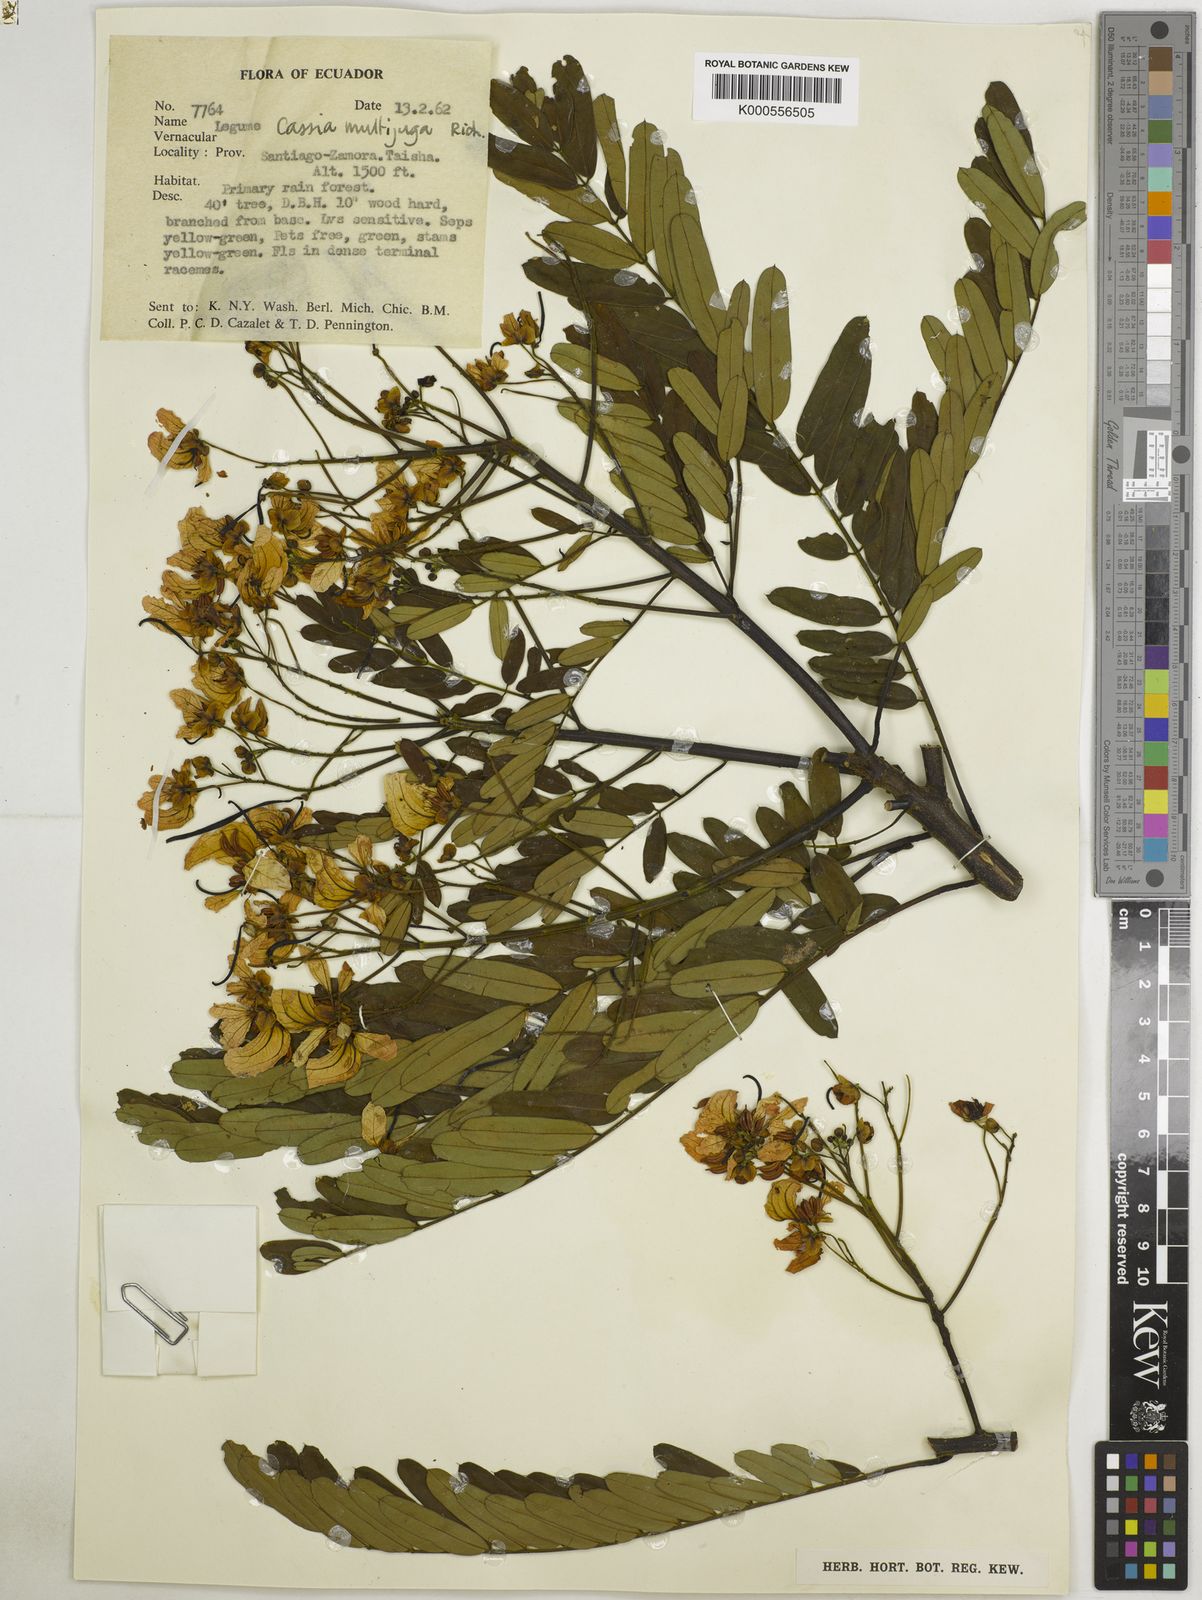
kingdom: Plantae
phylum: Tracheophyta
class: Magnoliopsida
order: Fabales
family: Fabaceae
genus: Senna
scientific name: Senna multijuga
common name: False sicklepod
